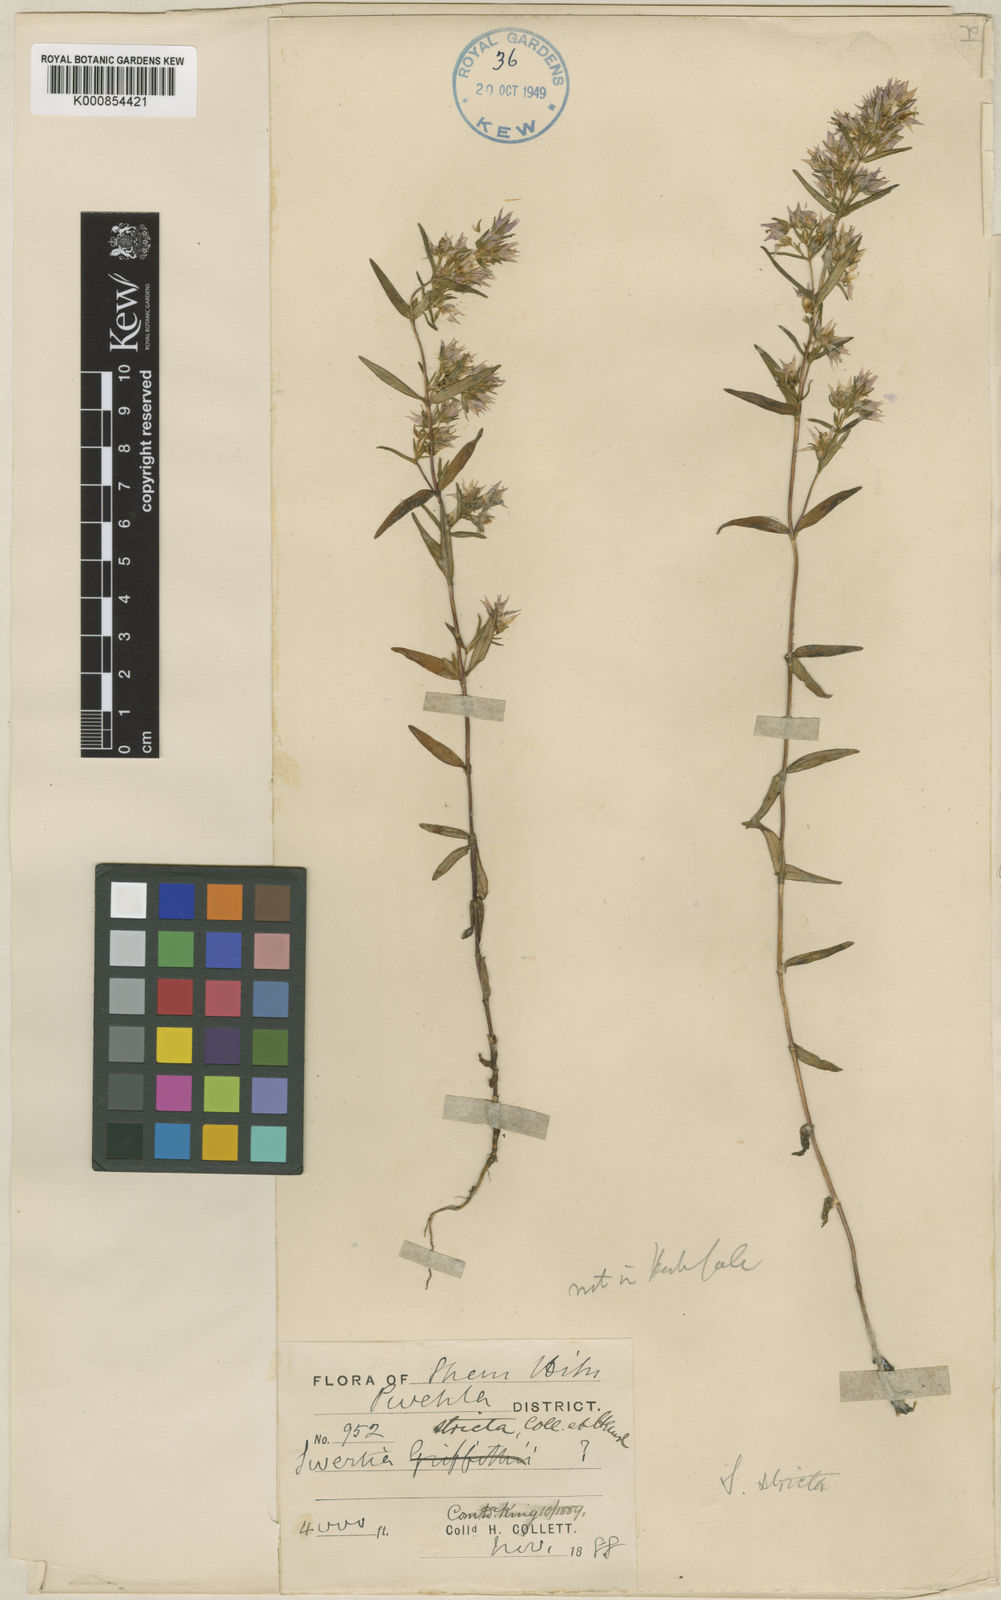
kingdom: Plantae
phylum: Tracheophyta
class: Magnoliopsida
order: Gentianales
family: Gentianaceae
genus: Swertia
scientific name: Swertia striata
